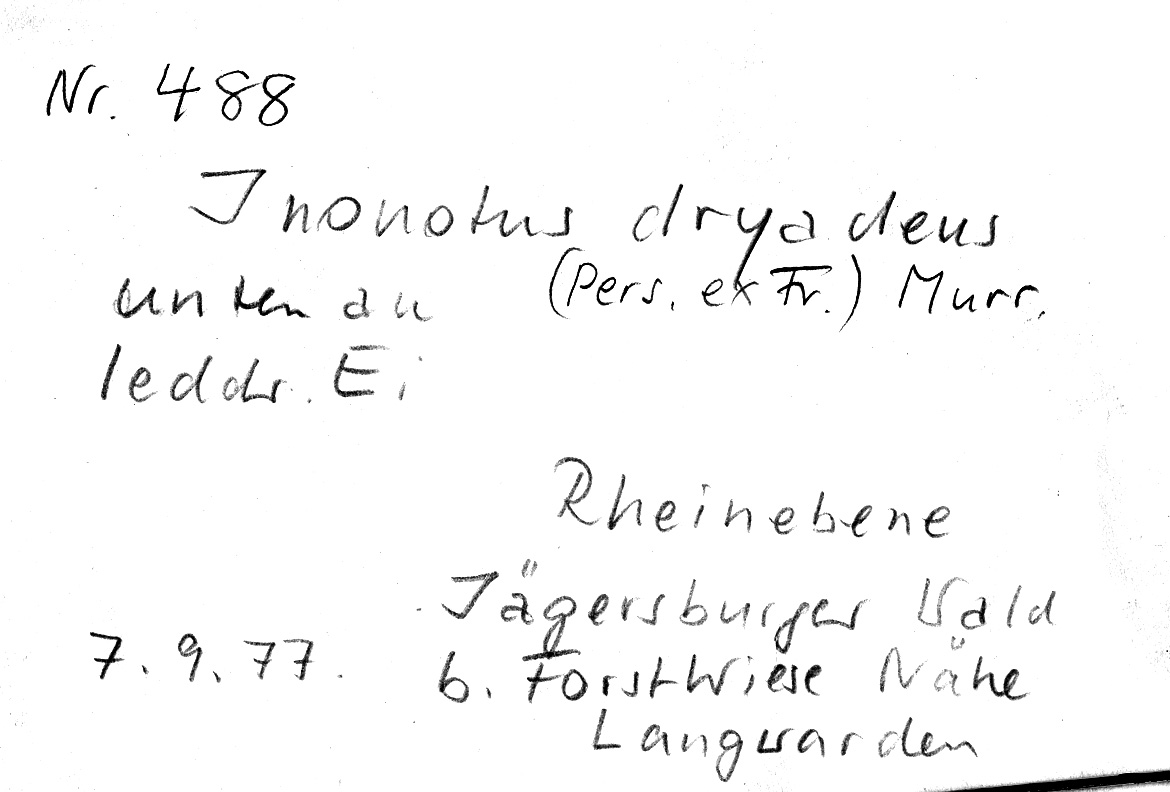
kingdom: Plantae
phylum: Tracheophyta
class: Magnoliopsida
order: Fagales
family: Fagaceae
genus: Quercus
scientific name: Quercus
